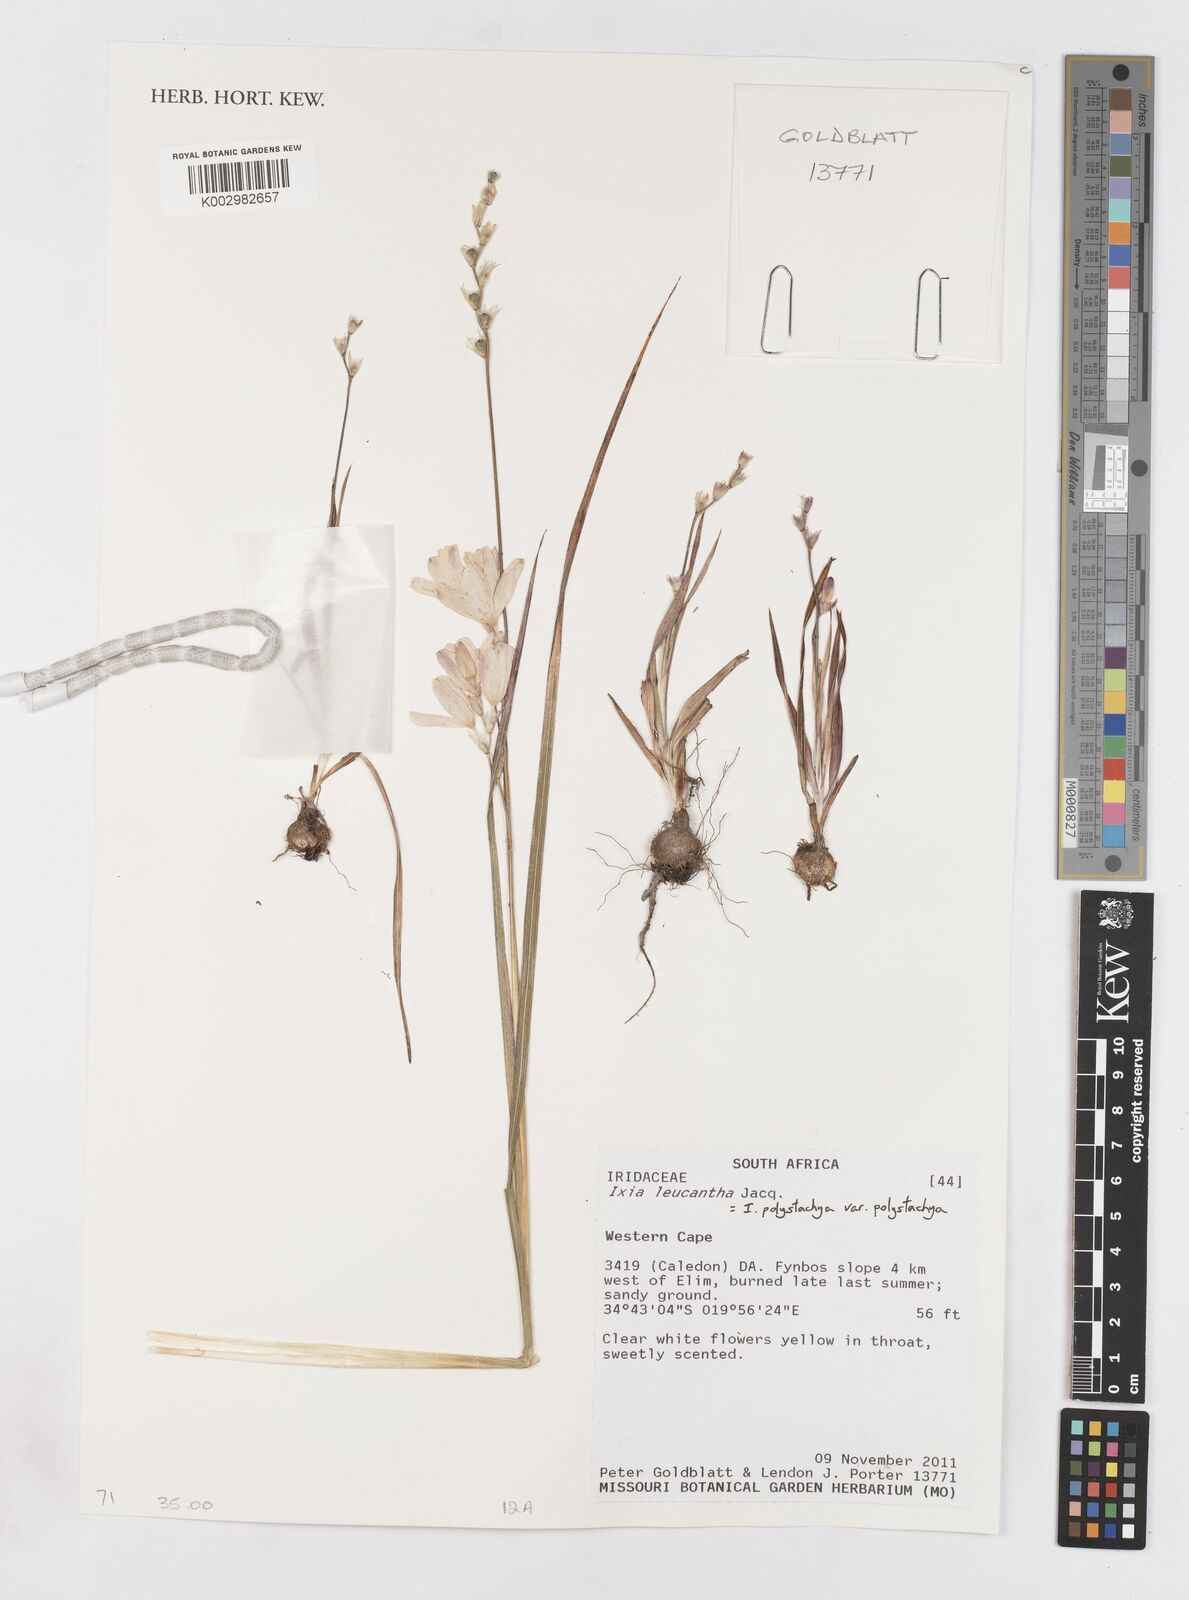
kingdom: Plantae
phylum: Tracheophyta
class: Liliopsida
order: Asparagales
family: Iridaceae
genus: Ixia
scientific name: Ixia polystachya
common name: White-and-yellow-flower cornlily
